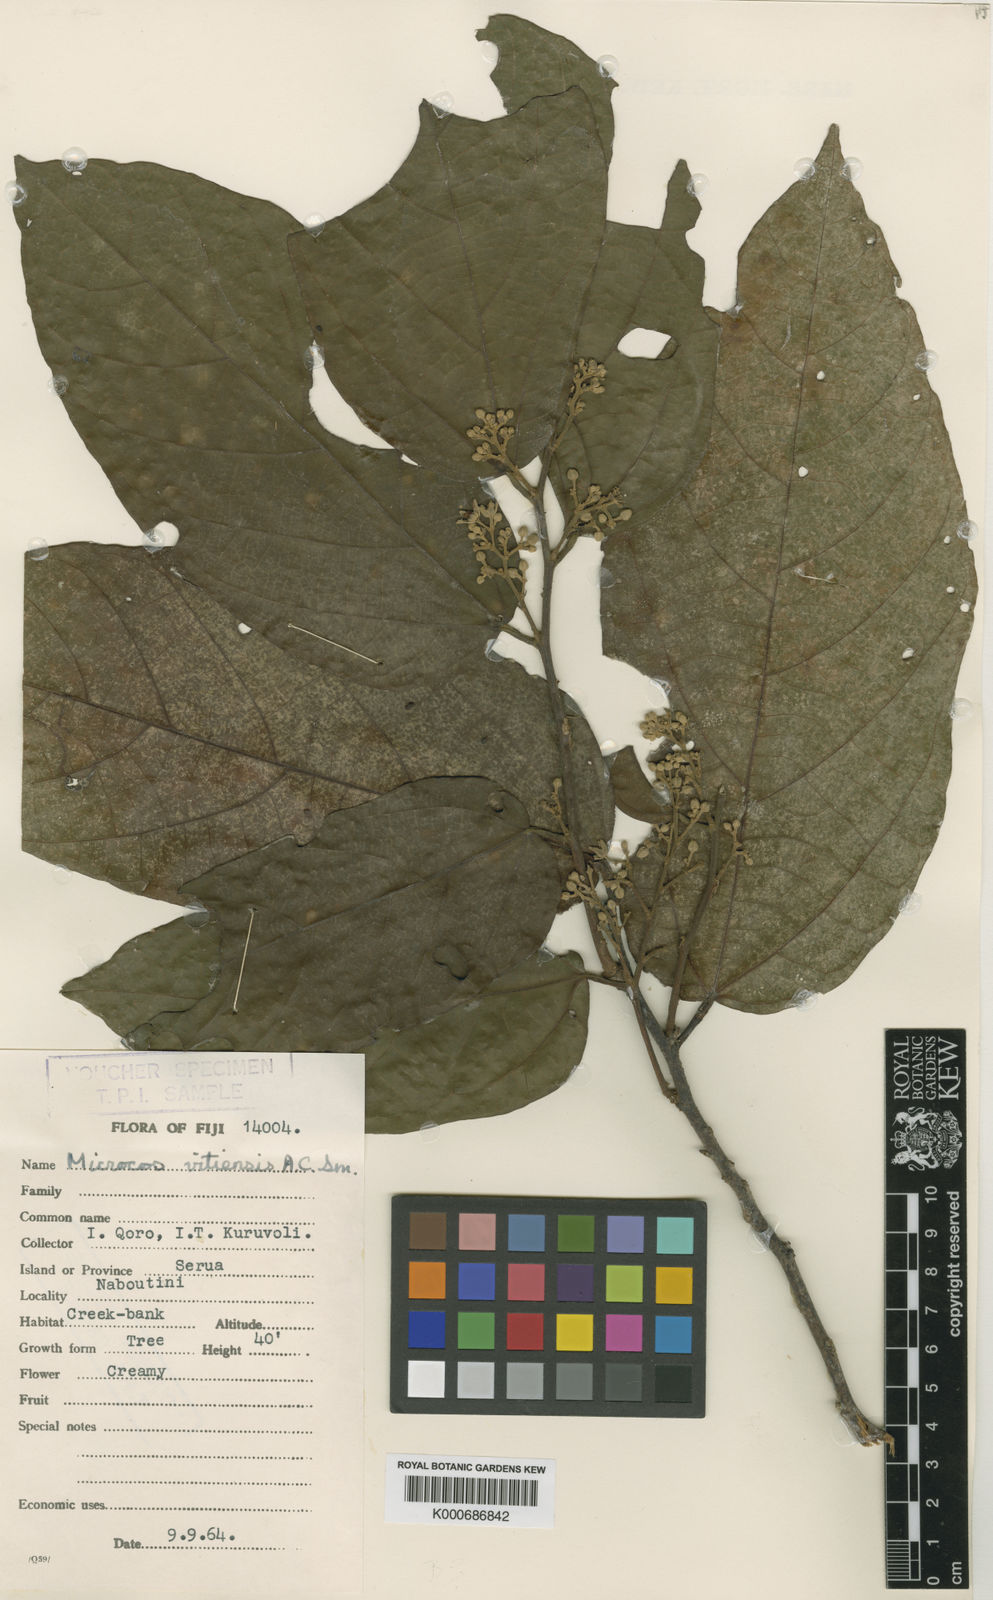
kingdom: Plantae
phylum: Tracheophyta
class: Magnoliopsida
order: Malvales
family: Malvaceae
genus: Microcos
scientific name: Microcos vitiensis
